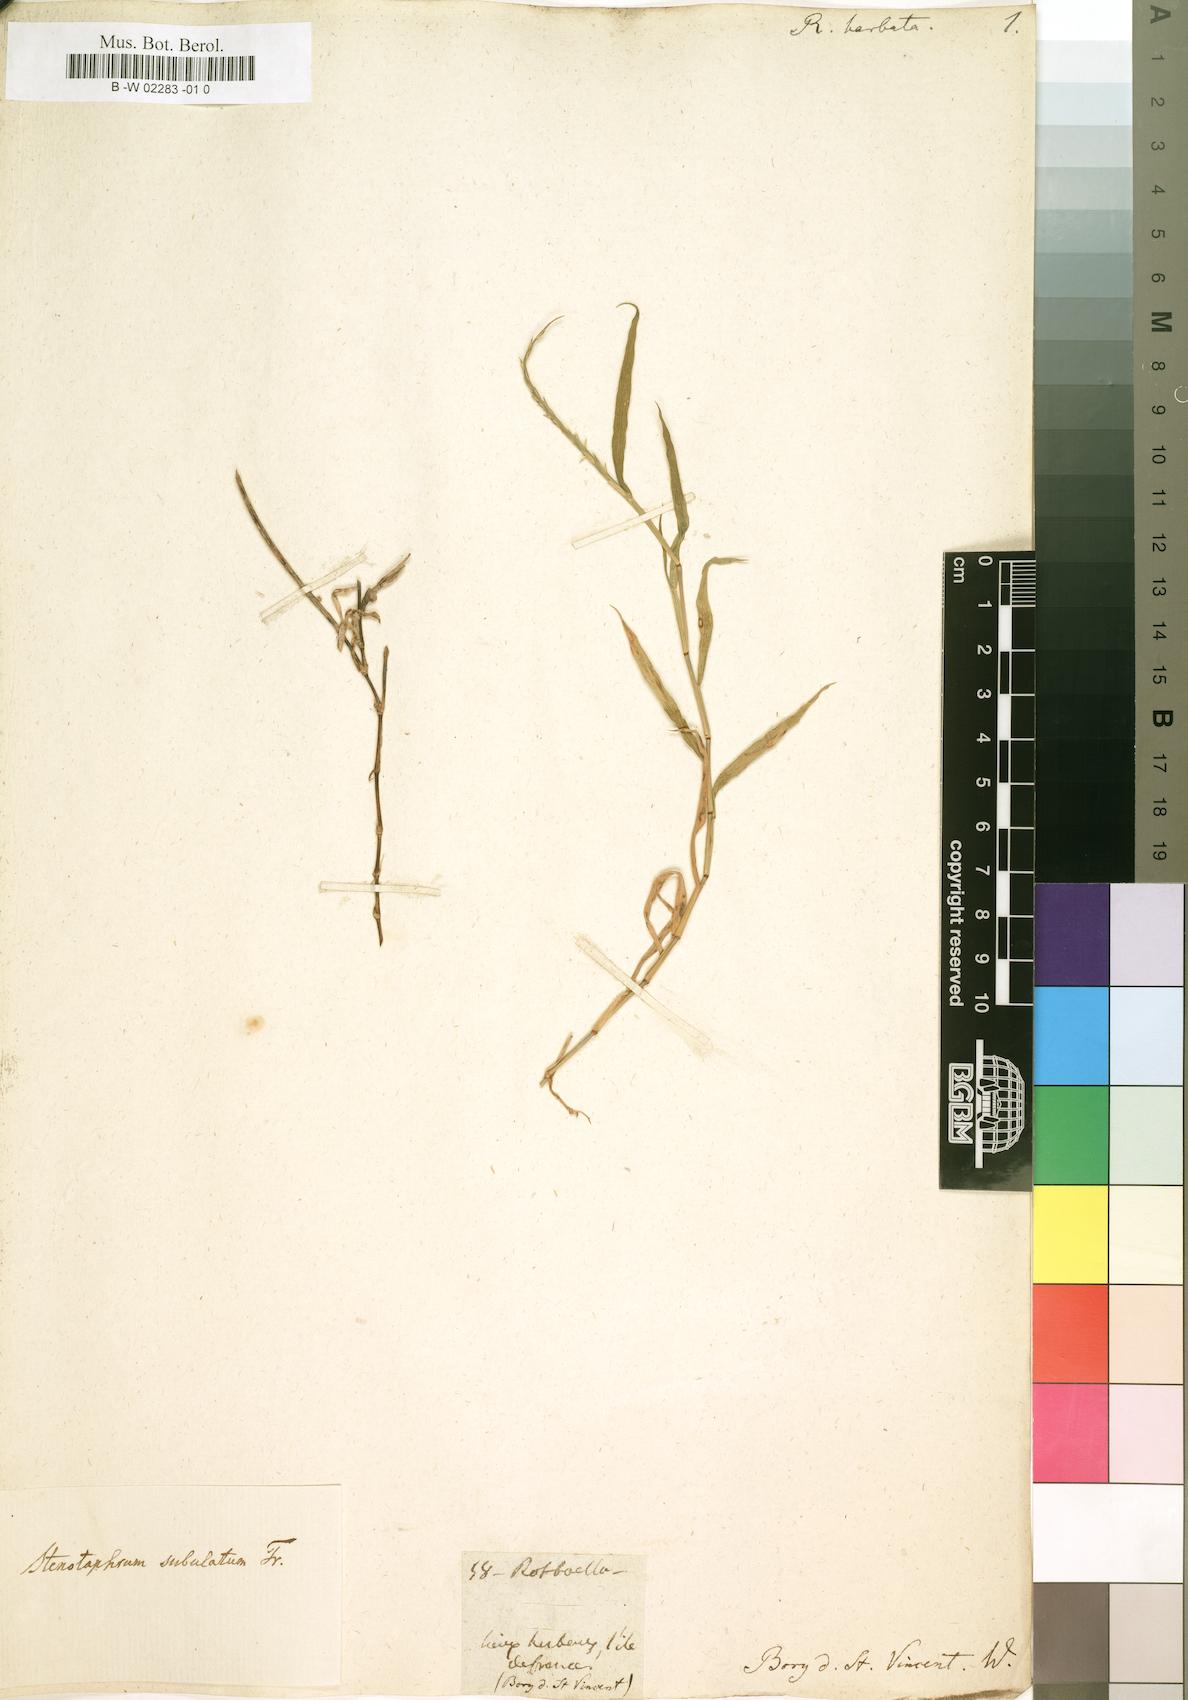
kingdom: Plantae
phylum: Tracheophyta
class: Liliopsida
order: Poales
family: Poaceae
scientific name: Poaceae
